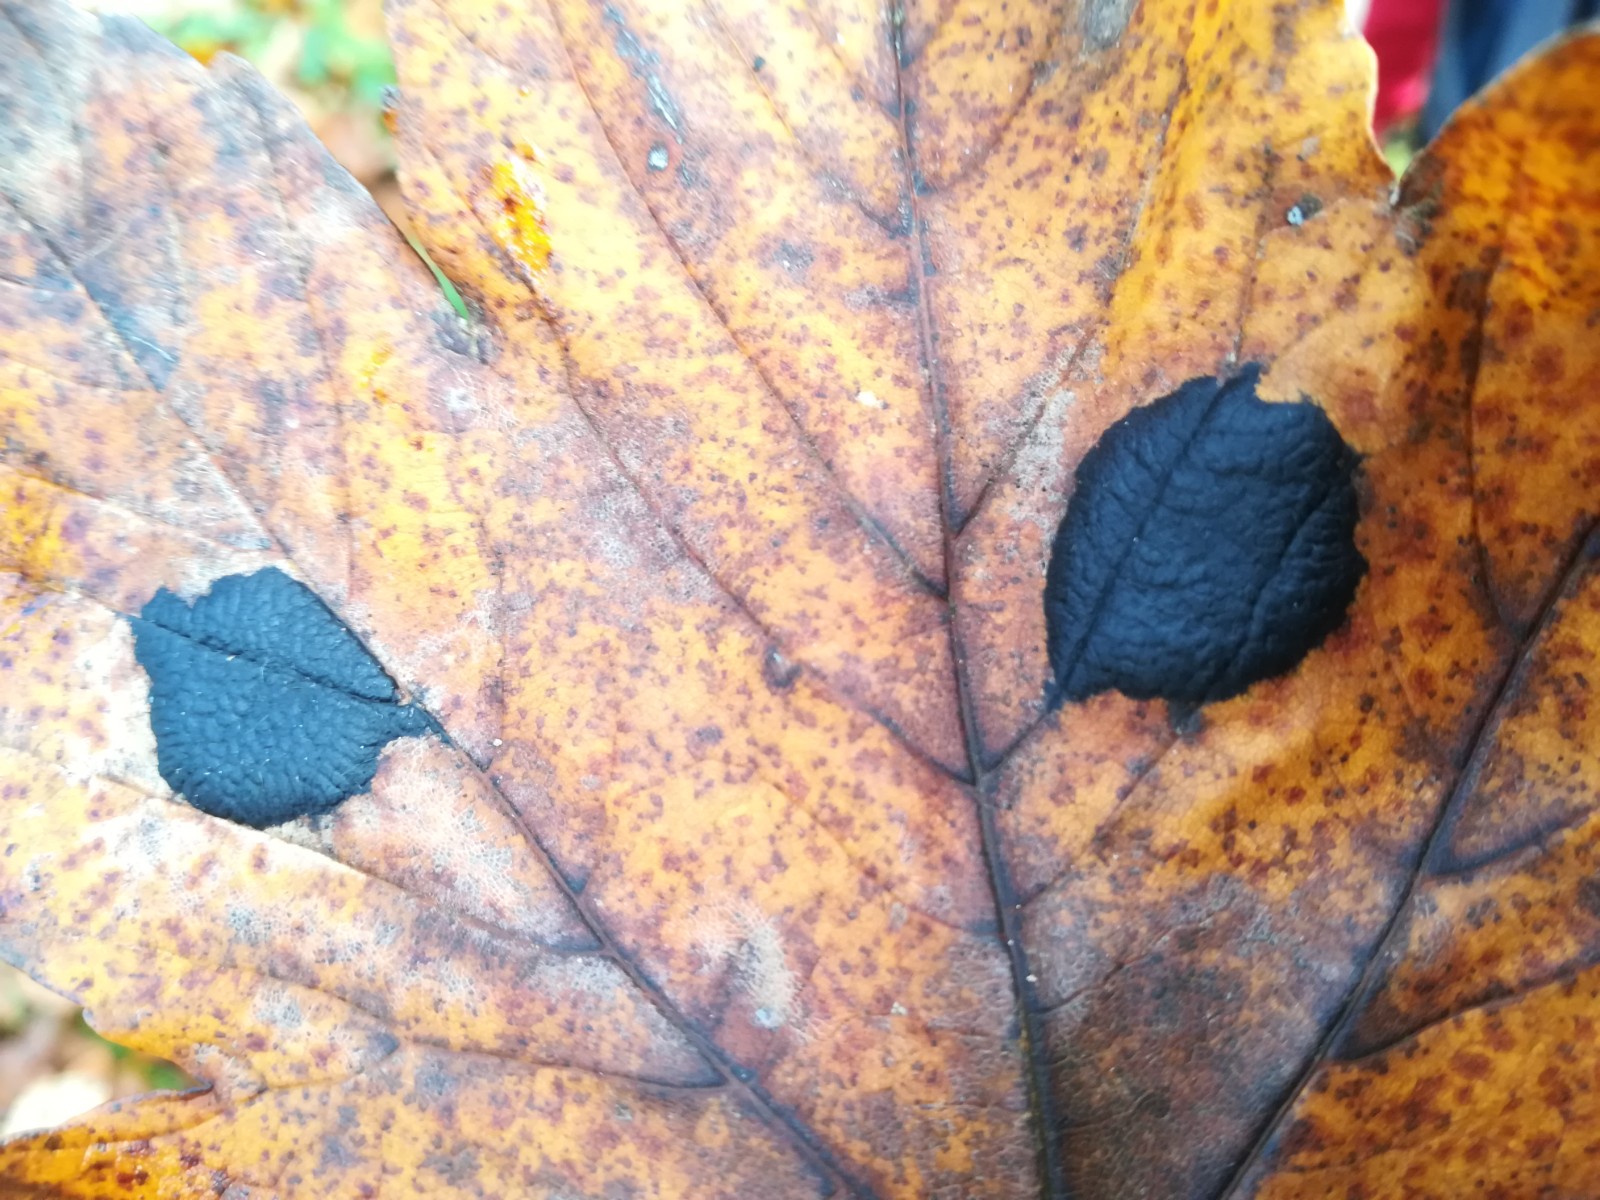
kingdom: Fungi
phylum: Ascomycota
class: Leotiomycetes
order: Rhytismatales
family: Rhytismataceae
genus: Rhytisma
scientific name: Rhytisma acerinum
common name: ahorn-rynkeplet
